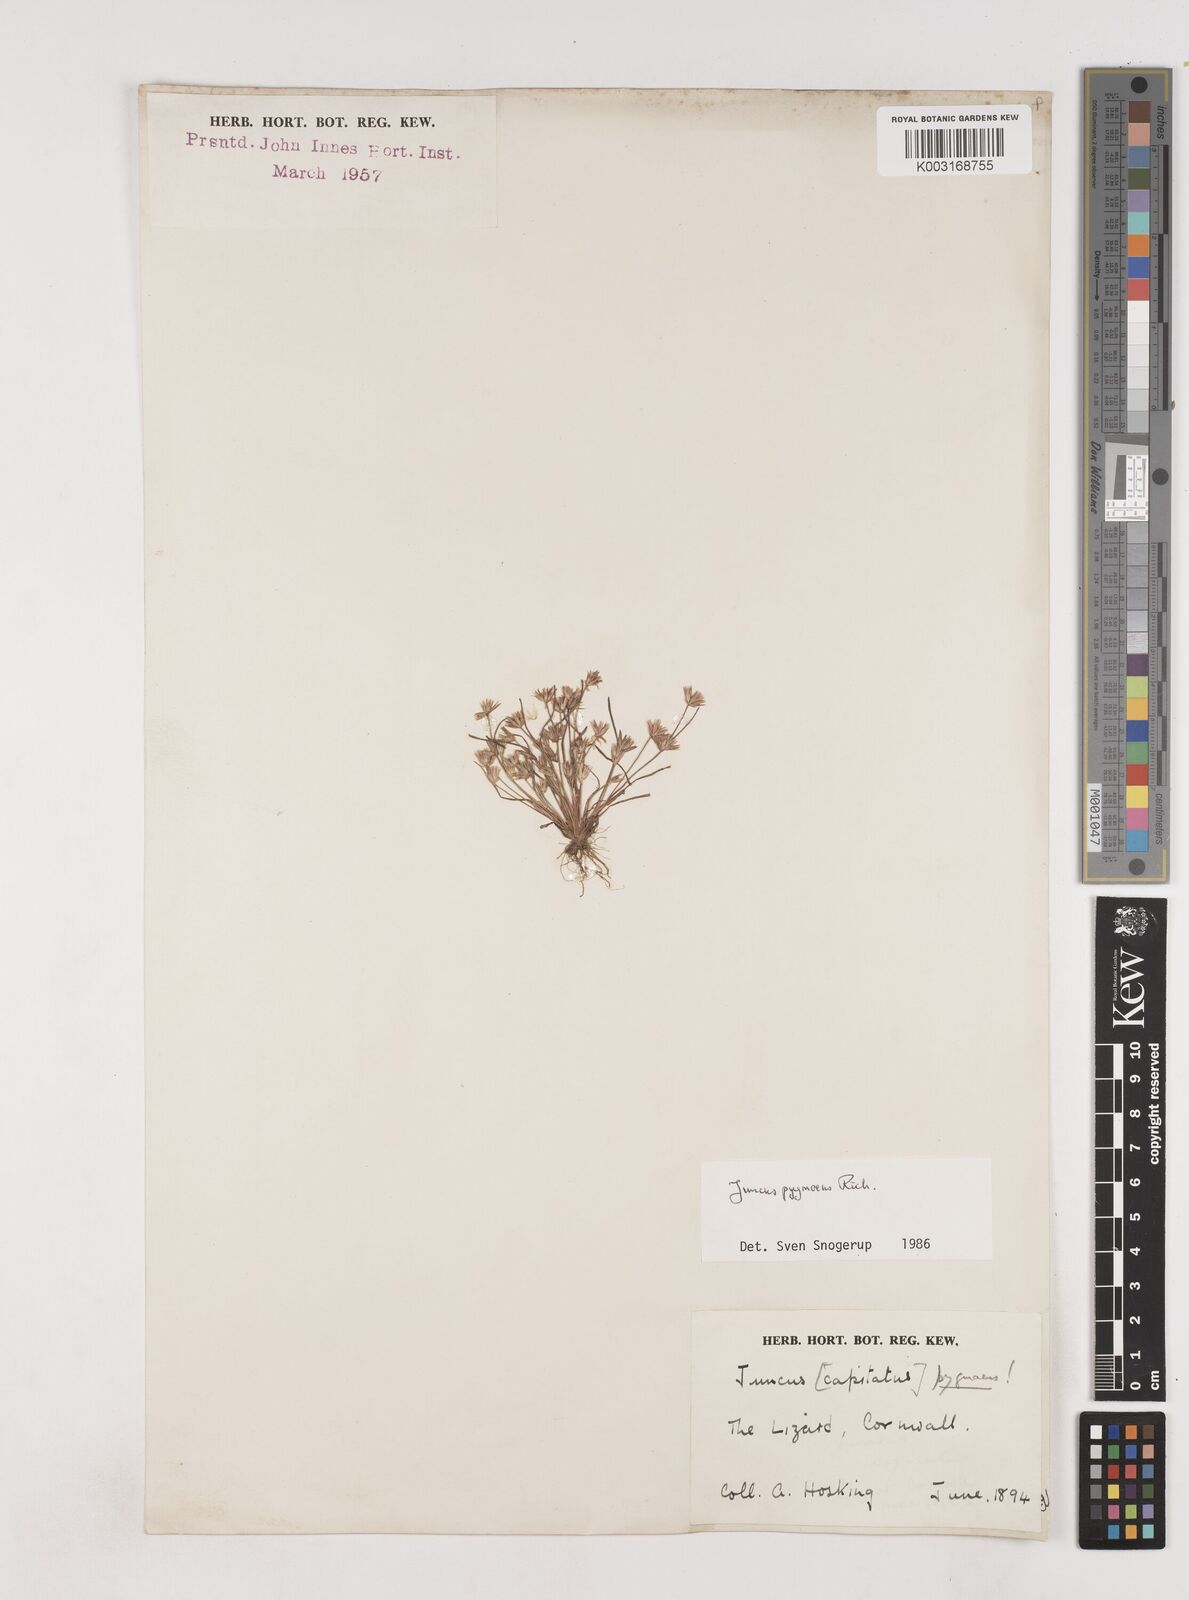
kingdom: Plantae
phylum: Tracheophyta
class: Liliopsida
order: Poales
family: Juncaceae
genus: Juncus
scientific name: Juncus pygmaeus
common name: Pigmy rush
